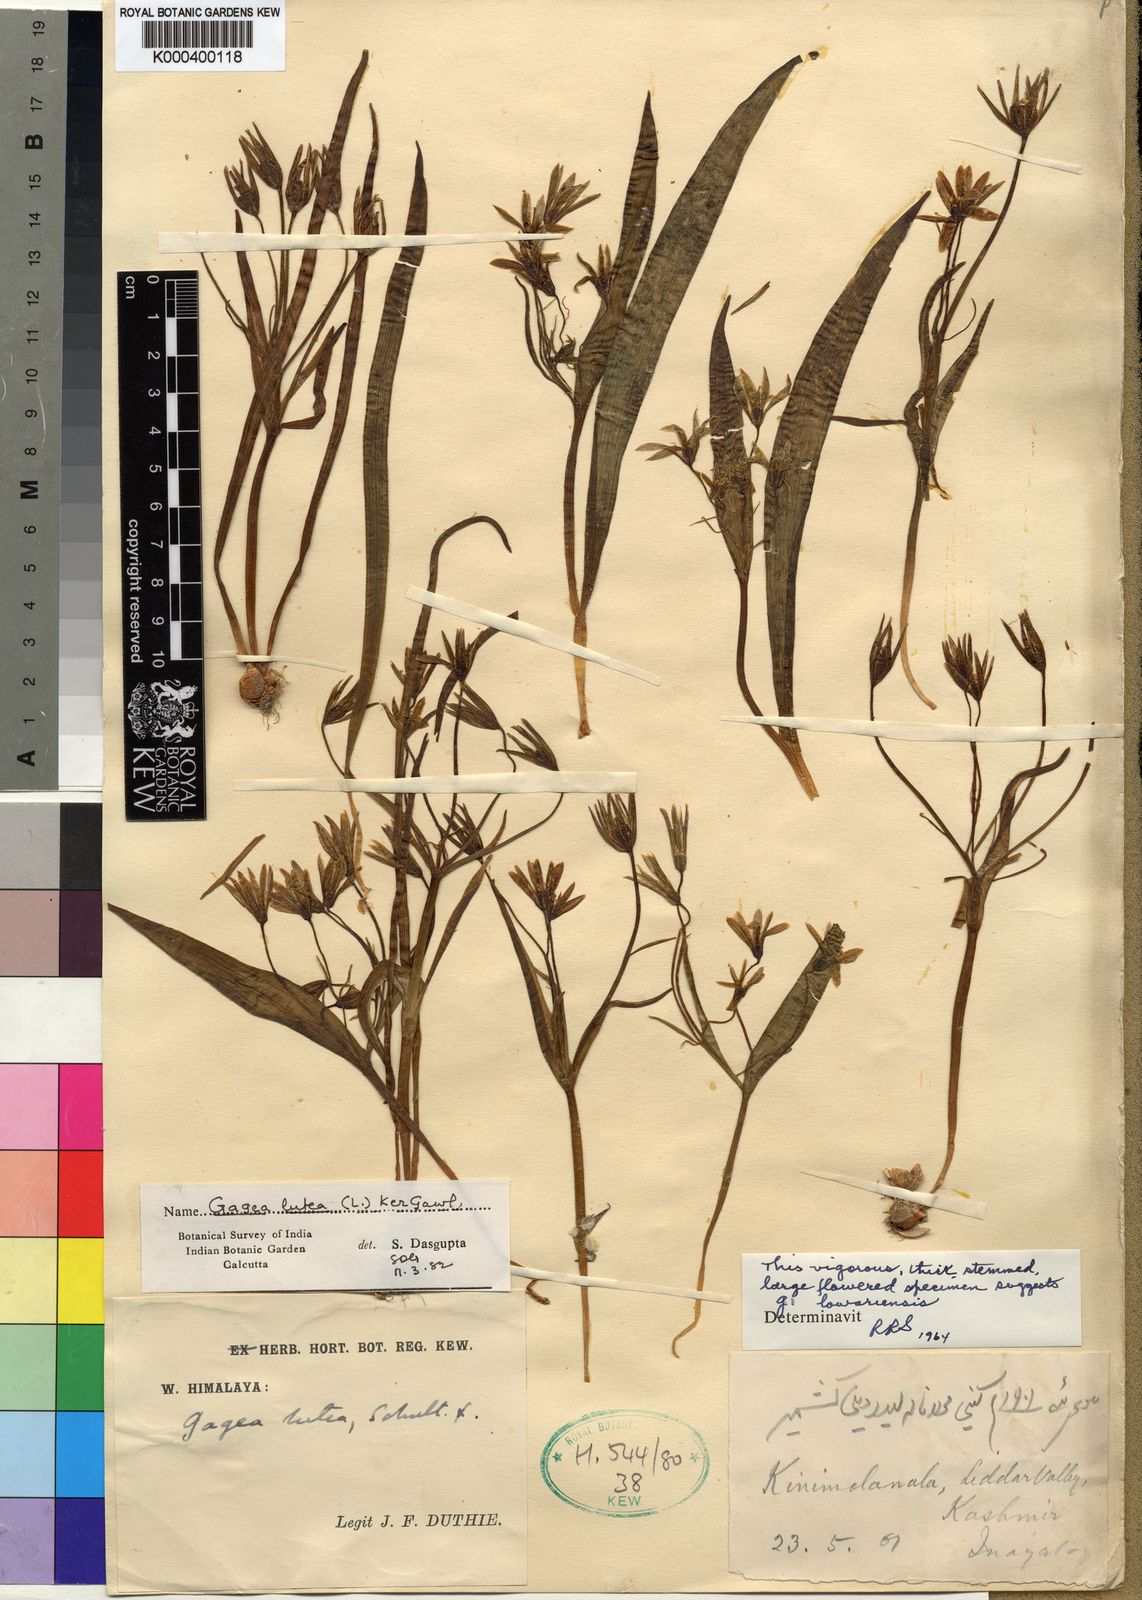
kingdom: Plantae
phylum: Tracheophyta
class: Liliopsida
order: Liliales
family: Liliaceae
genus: Gagea
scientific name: Gagea lutea
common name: Yellow star-of-bethlehem
